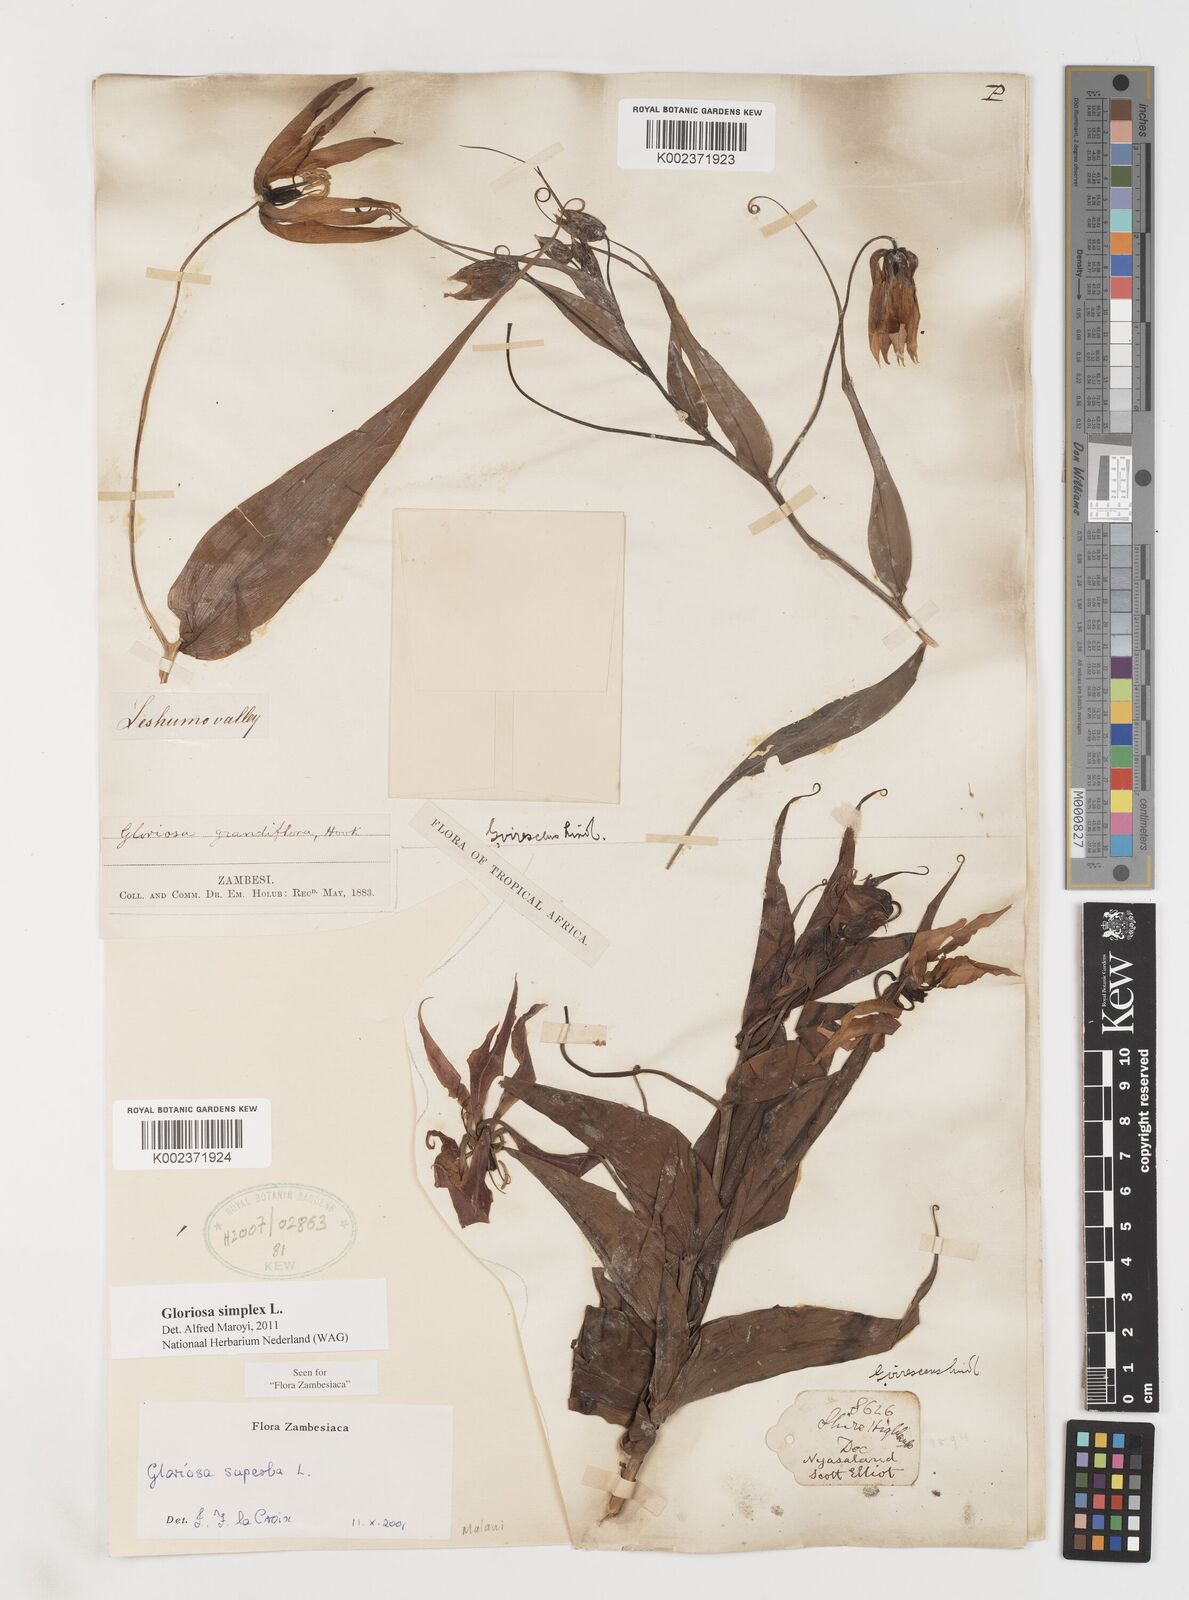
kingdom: Plantae
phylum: Tracheophyta
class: Liliopsida
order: Liliales
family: Colchicaceae
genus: Gloriosa
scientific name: Gloriosa simplex
